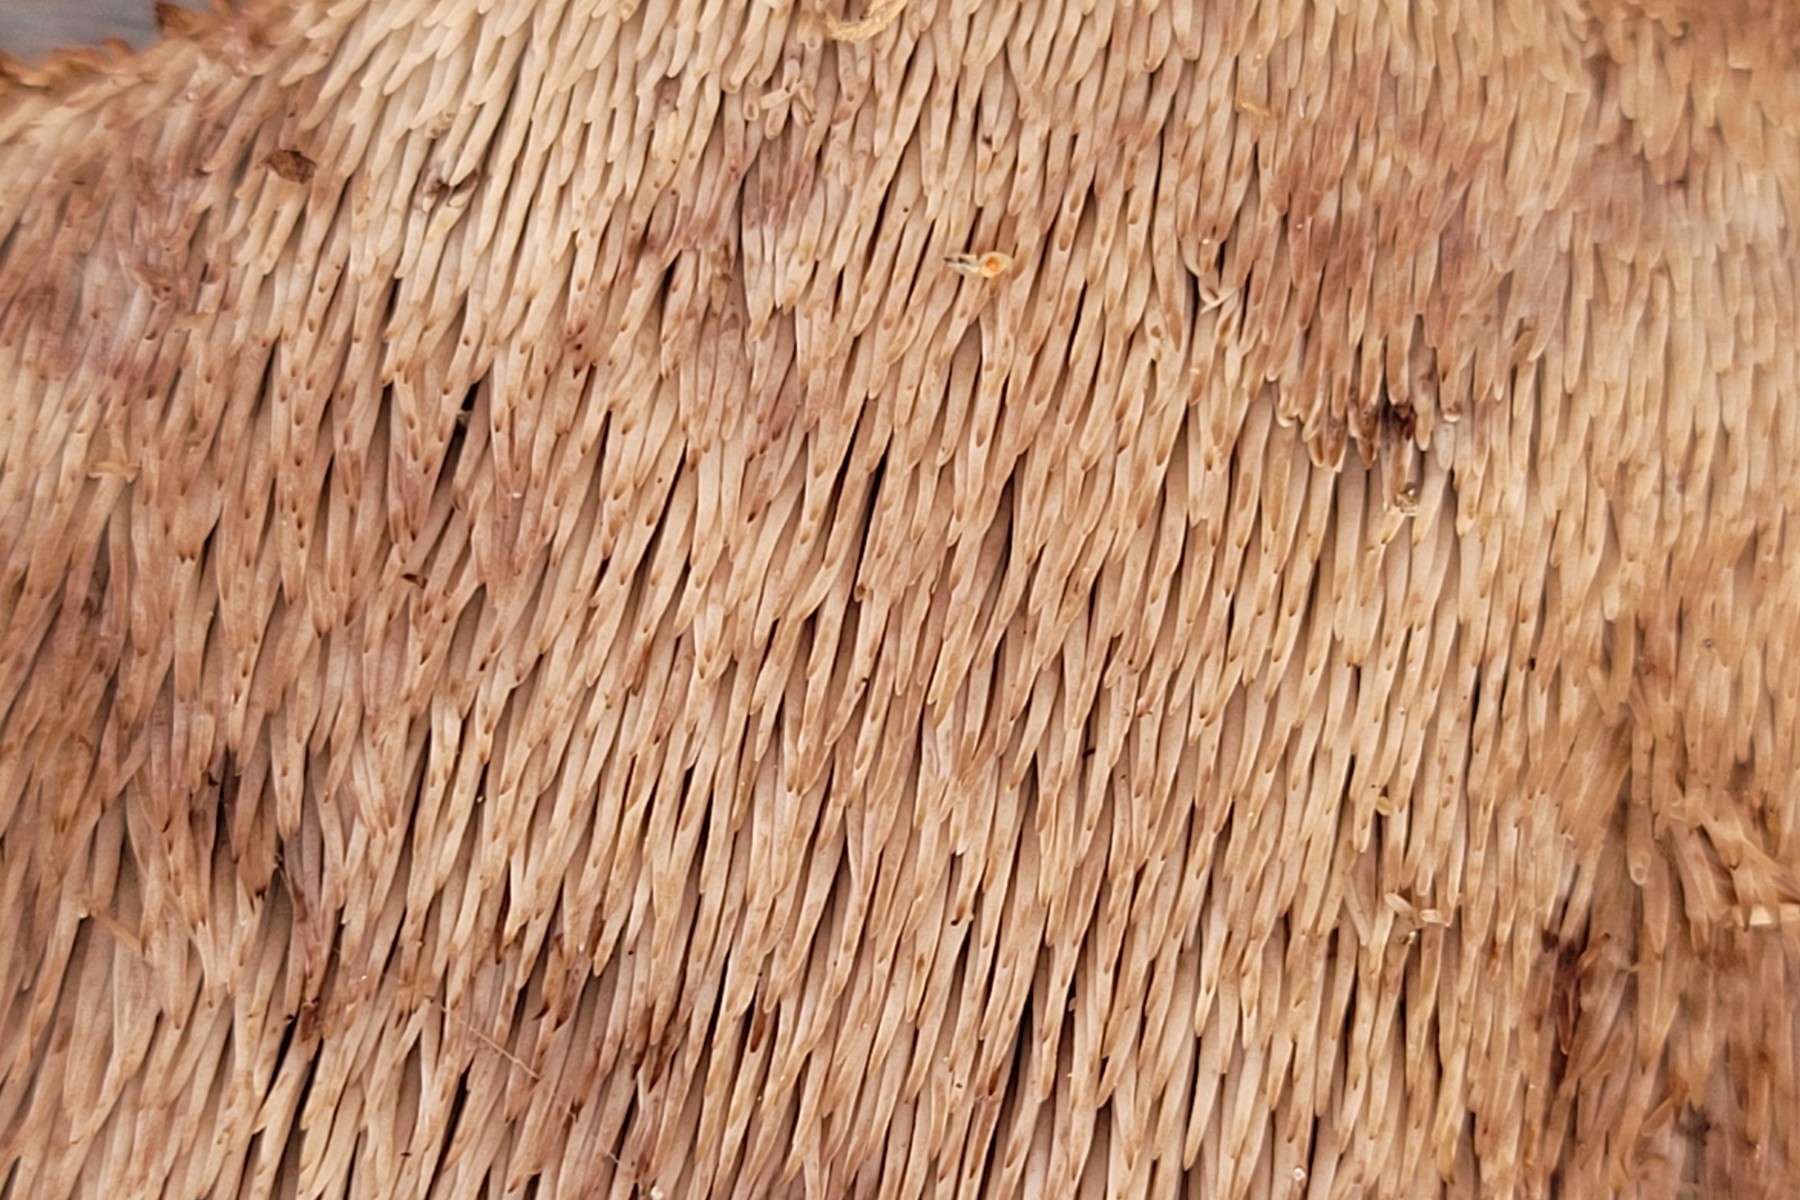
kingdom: Fungi
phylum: Basidiomycota
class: Agaricomycetes
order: Thelephorales
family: Thelephoraceae
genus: Phellodon
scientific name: Phellodon fuligineoalbus
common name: pjusket duftpigsvamp
